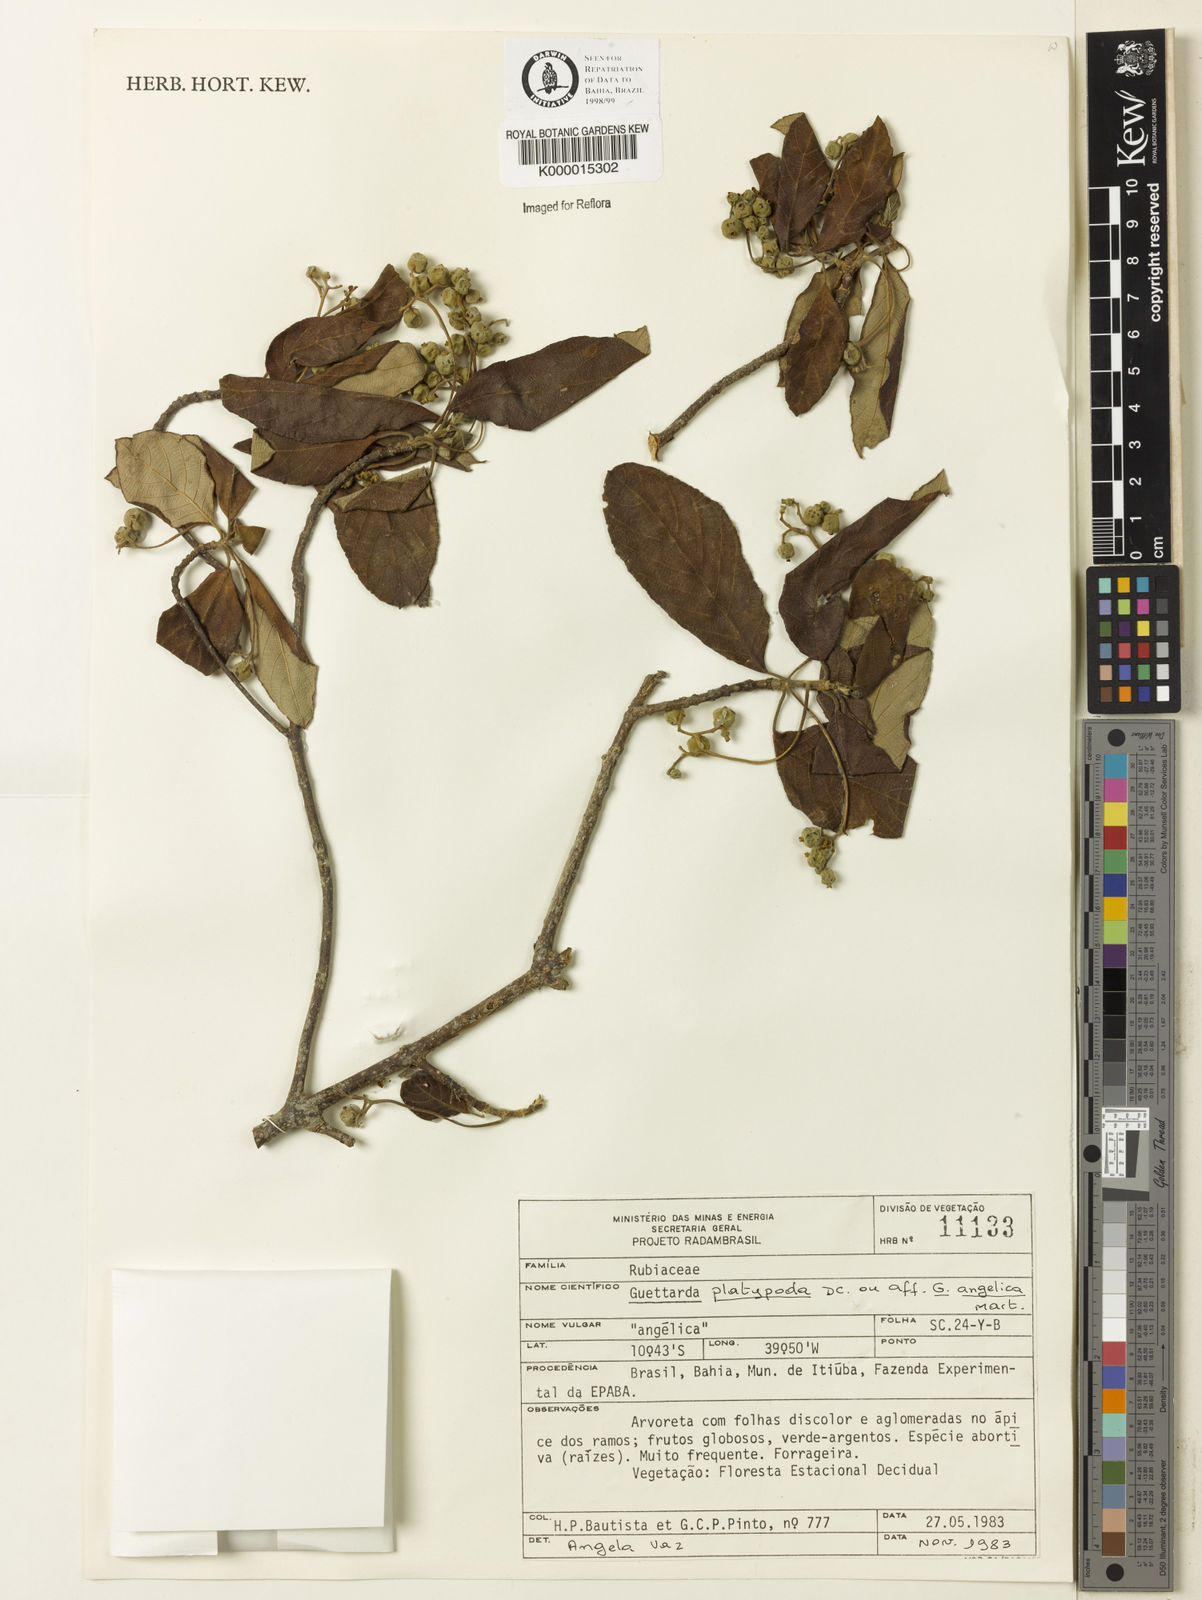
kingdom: Plantae
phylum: Tracheophyta
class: Magnoliopsida
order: Gentianales
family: Rubiaceae
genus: Guettarda
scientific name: Guettarda platypoda
